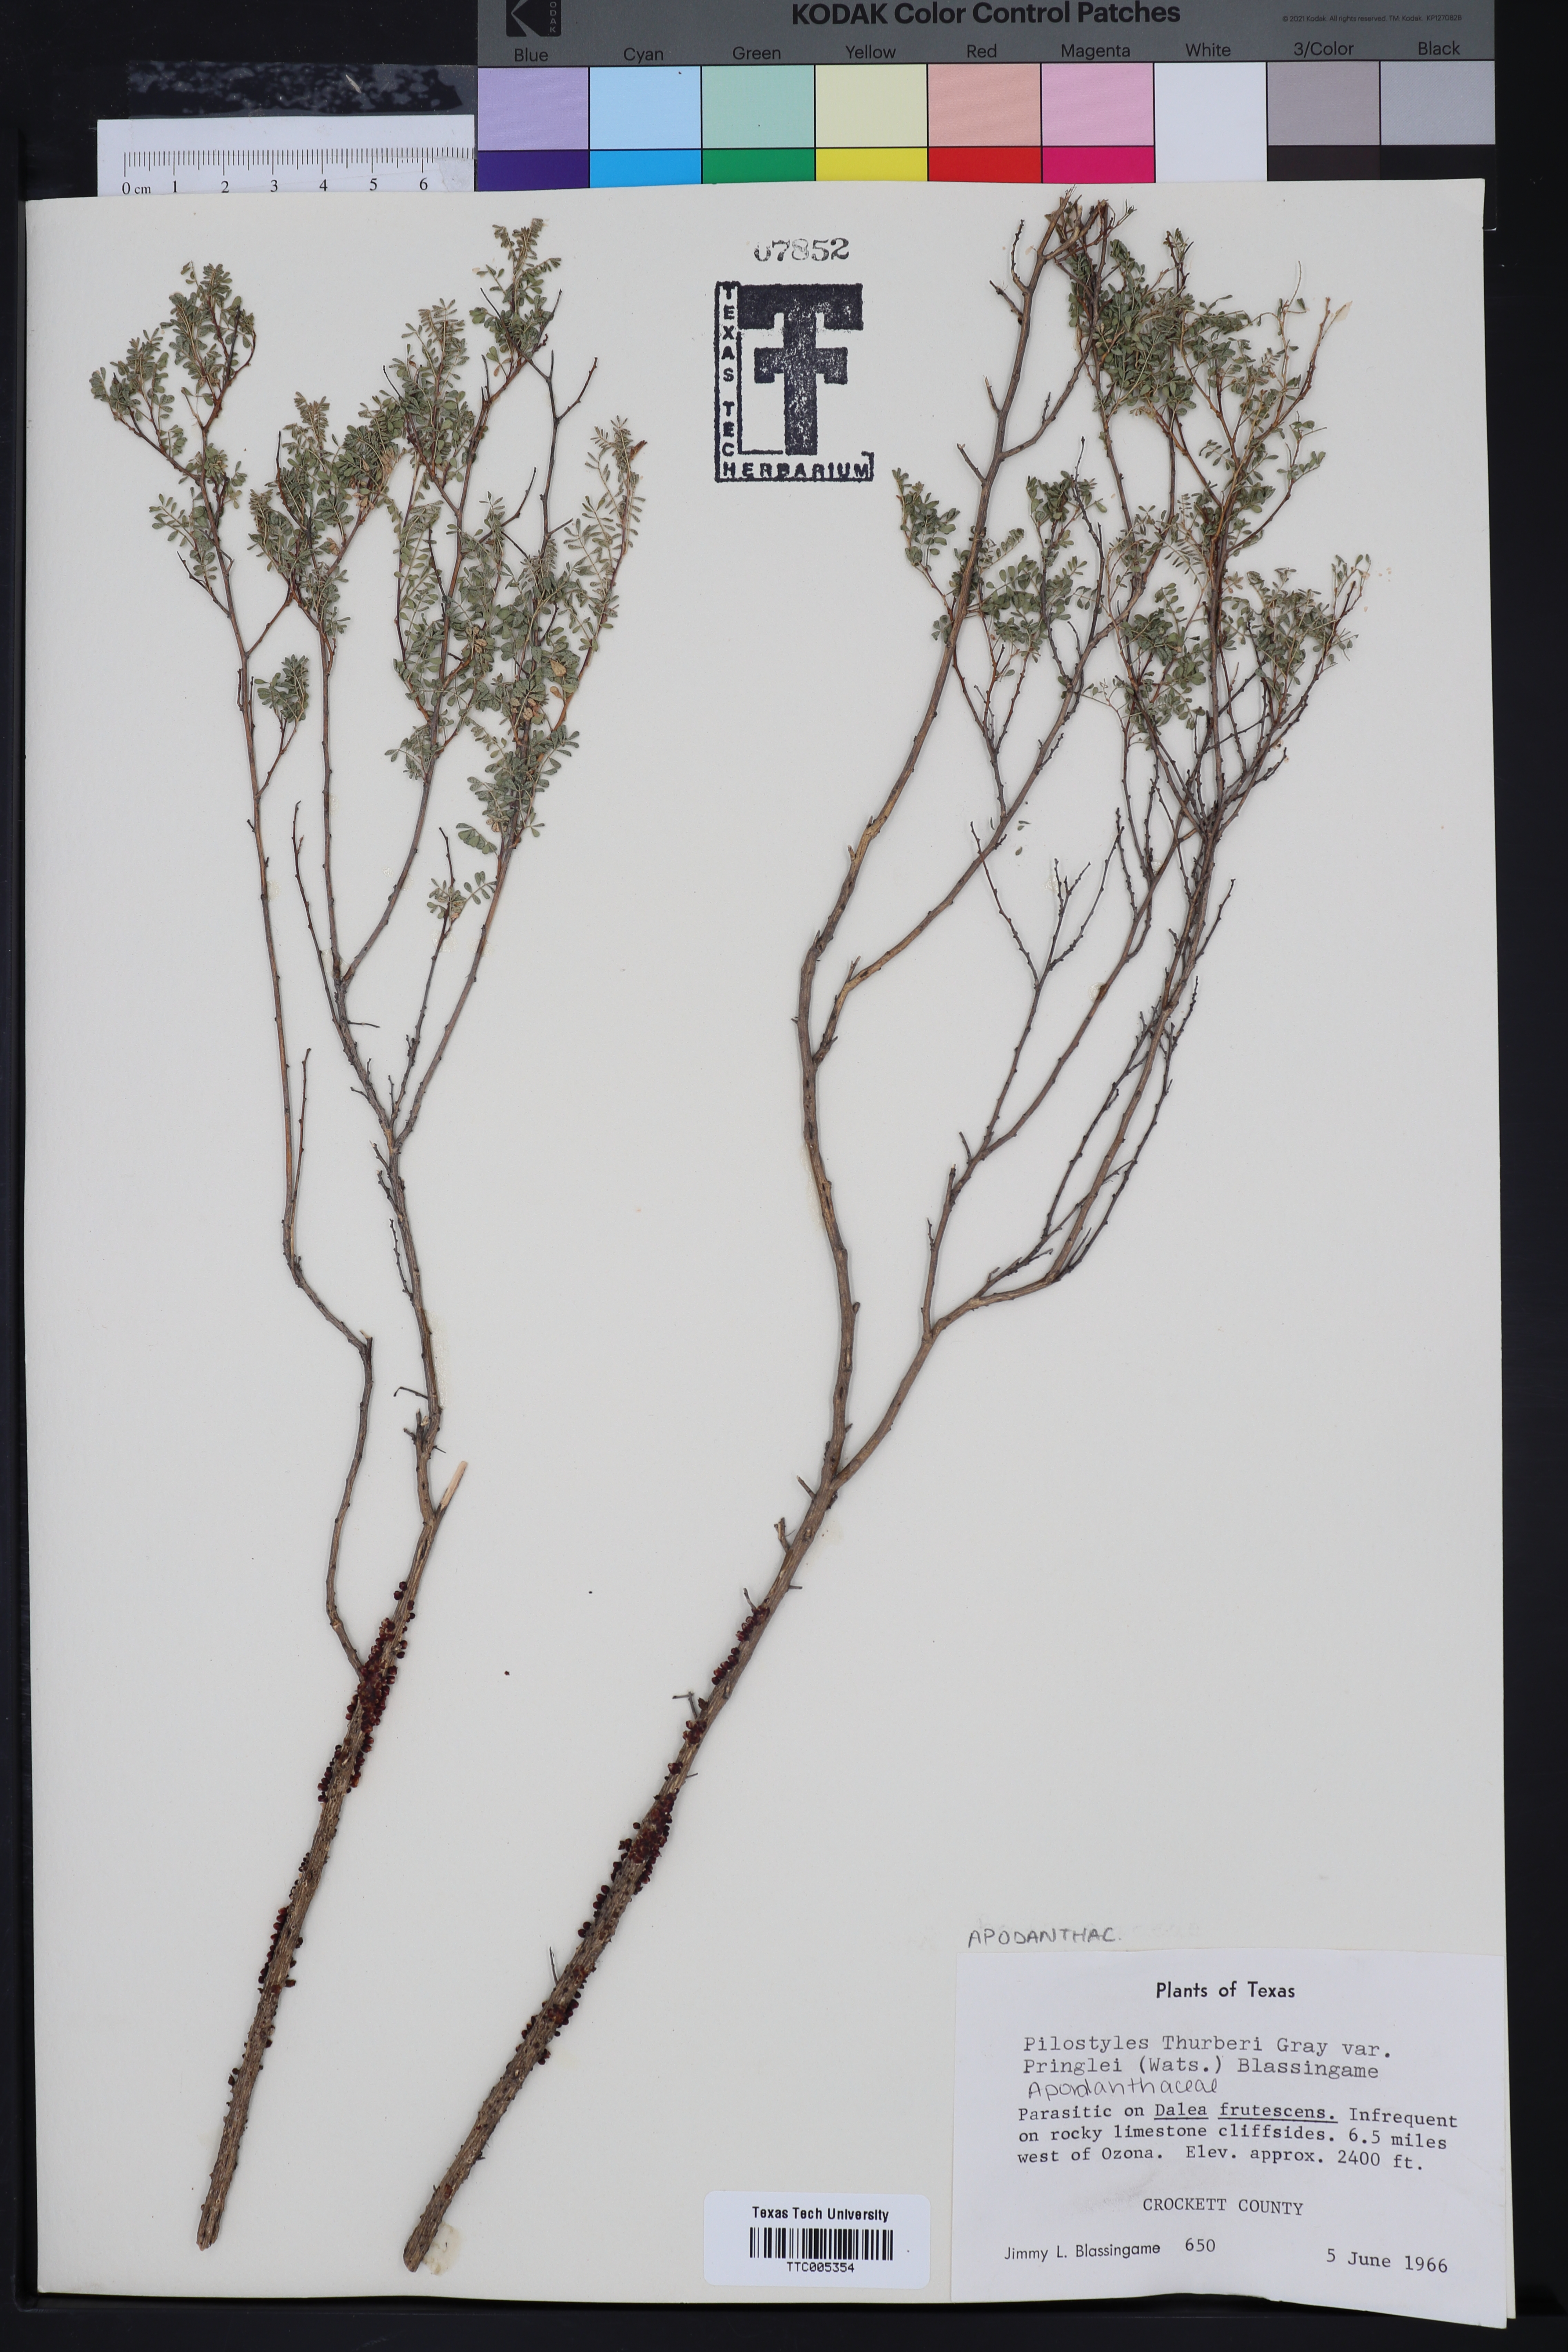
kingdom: Plantae
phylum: Tracheophyta
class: Magnoliopsida
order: Cucurbitales
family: Apodanthaceae
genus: Pilostyles
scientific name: Pilostyles thurberi
